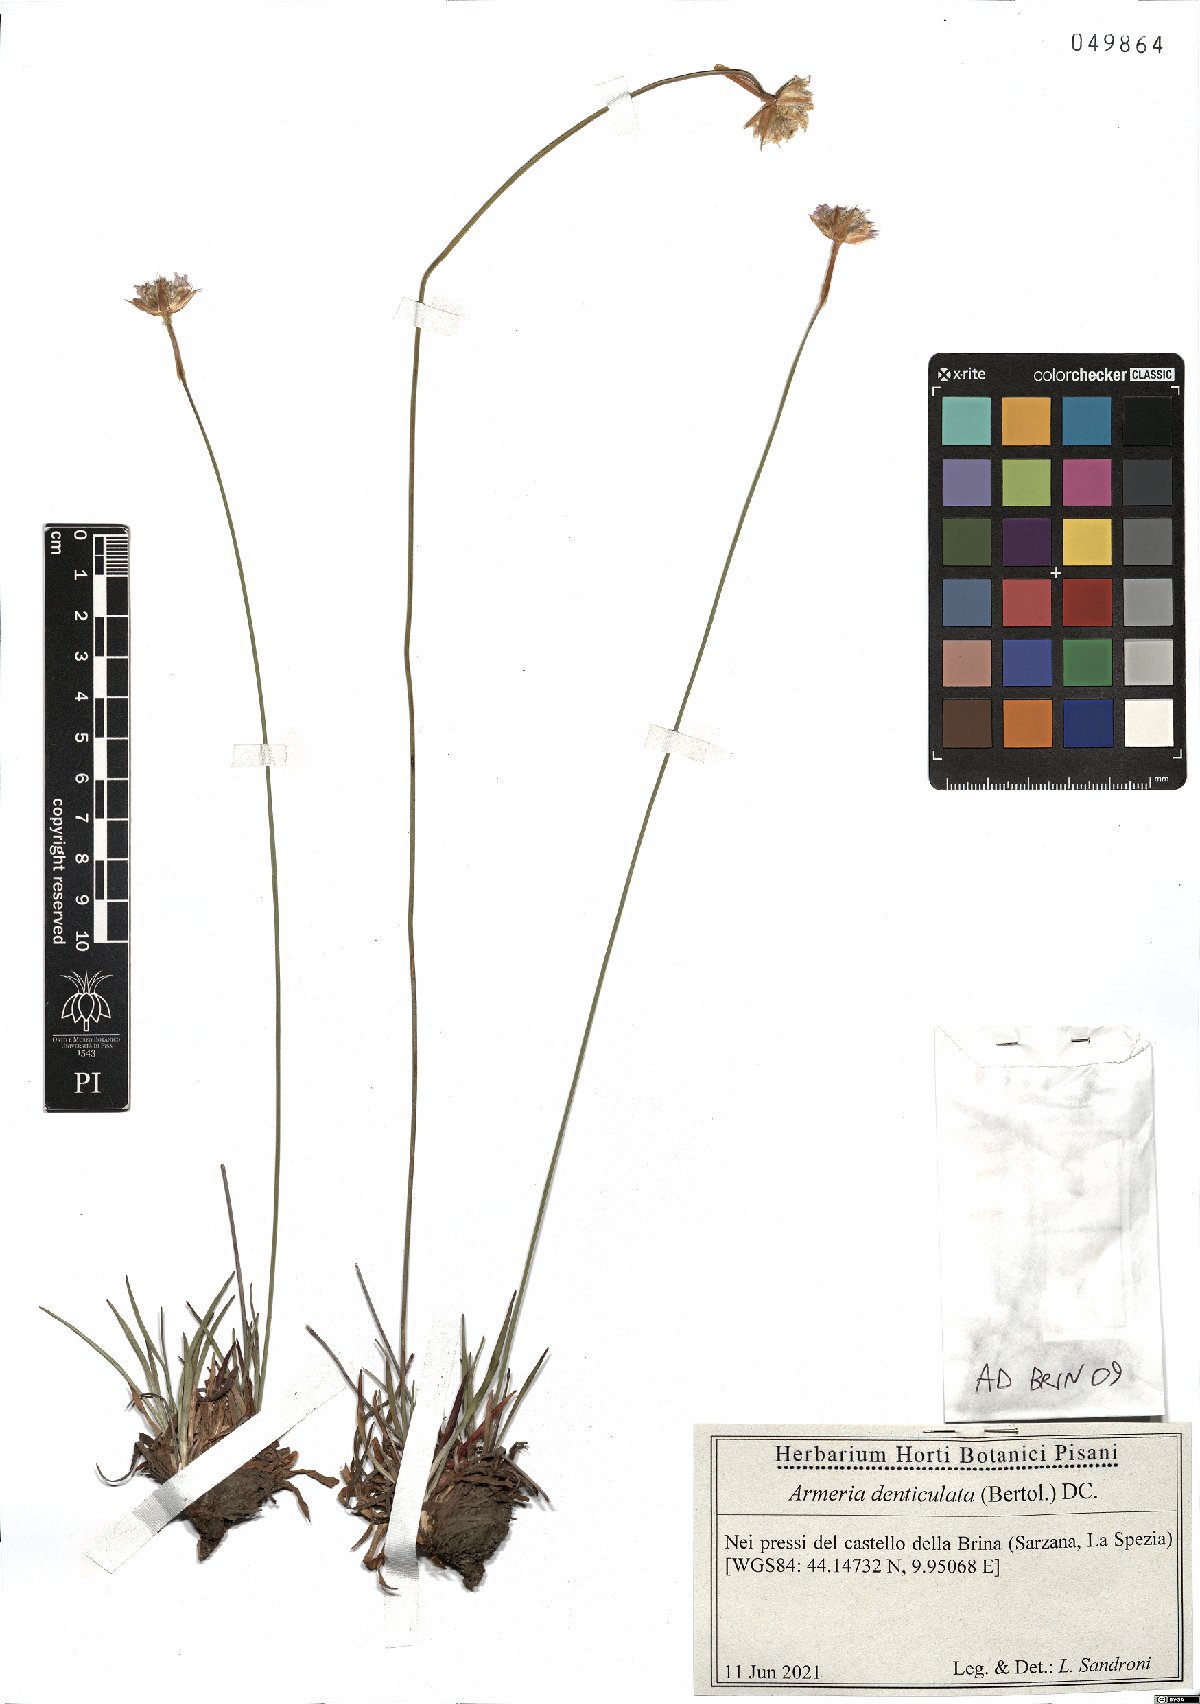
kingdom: Plantae
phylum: Tracheophyta
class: Magnoliopsida
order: Caryophyllales
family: Plumbaginaceae
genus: Armeria
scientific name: Armeria denticulata
